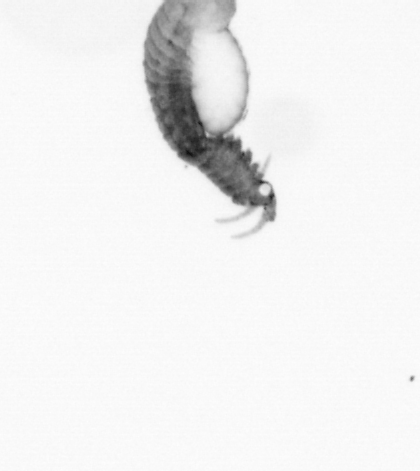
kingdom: Animalia
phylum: Annelida
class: Polychaeta
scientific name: Polychaeta
